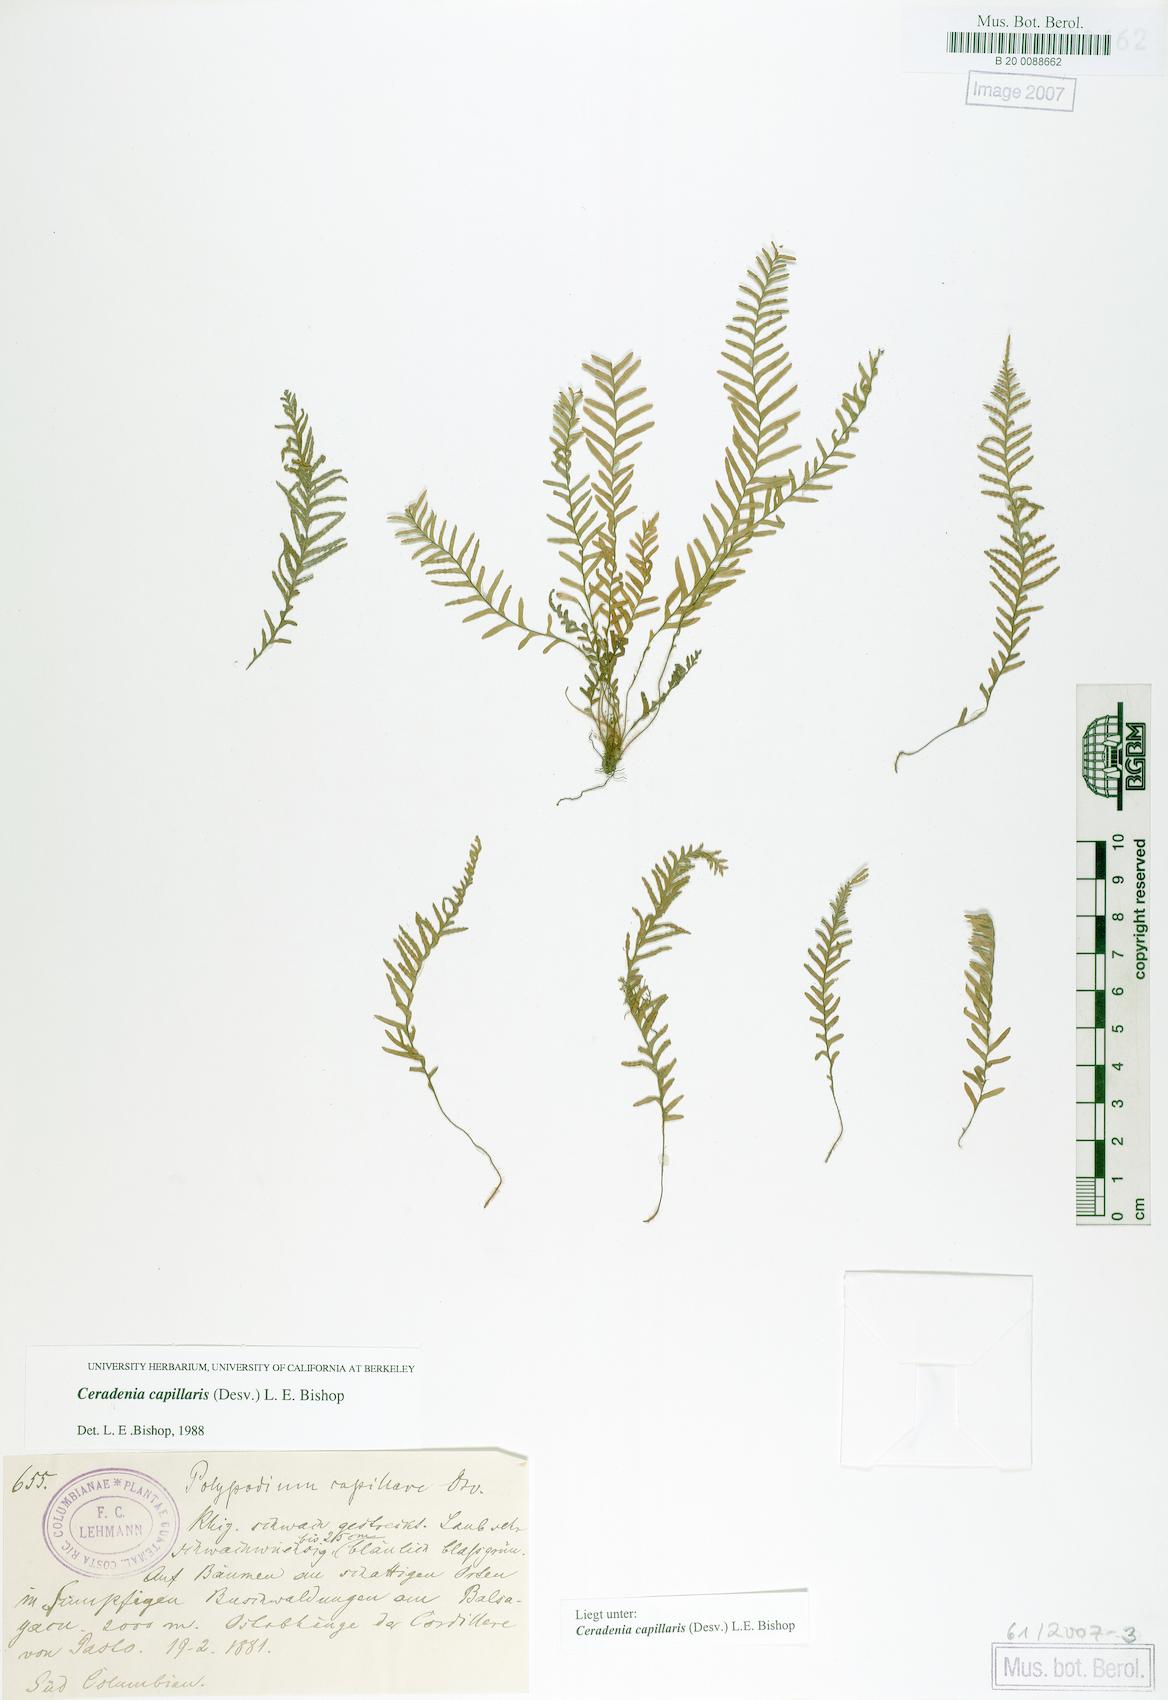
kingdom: Plantae
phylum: Tracheophyta
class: Polypodiopsida
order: Polypodiales
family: Polypodiaceae
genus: Ceradenia
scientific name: Ceradenia capillaris
